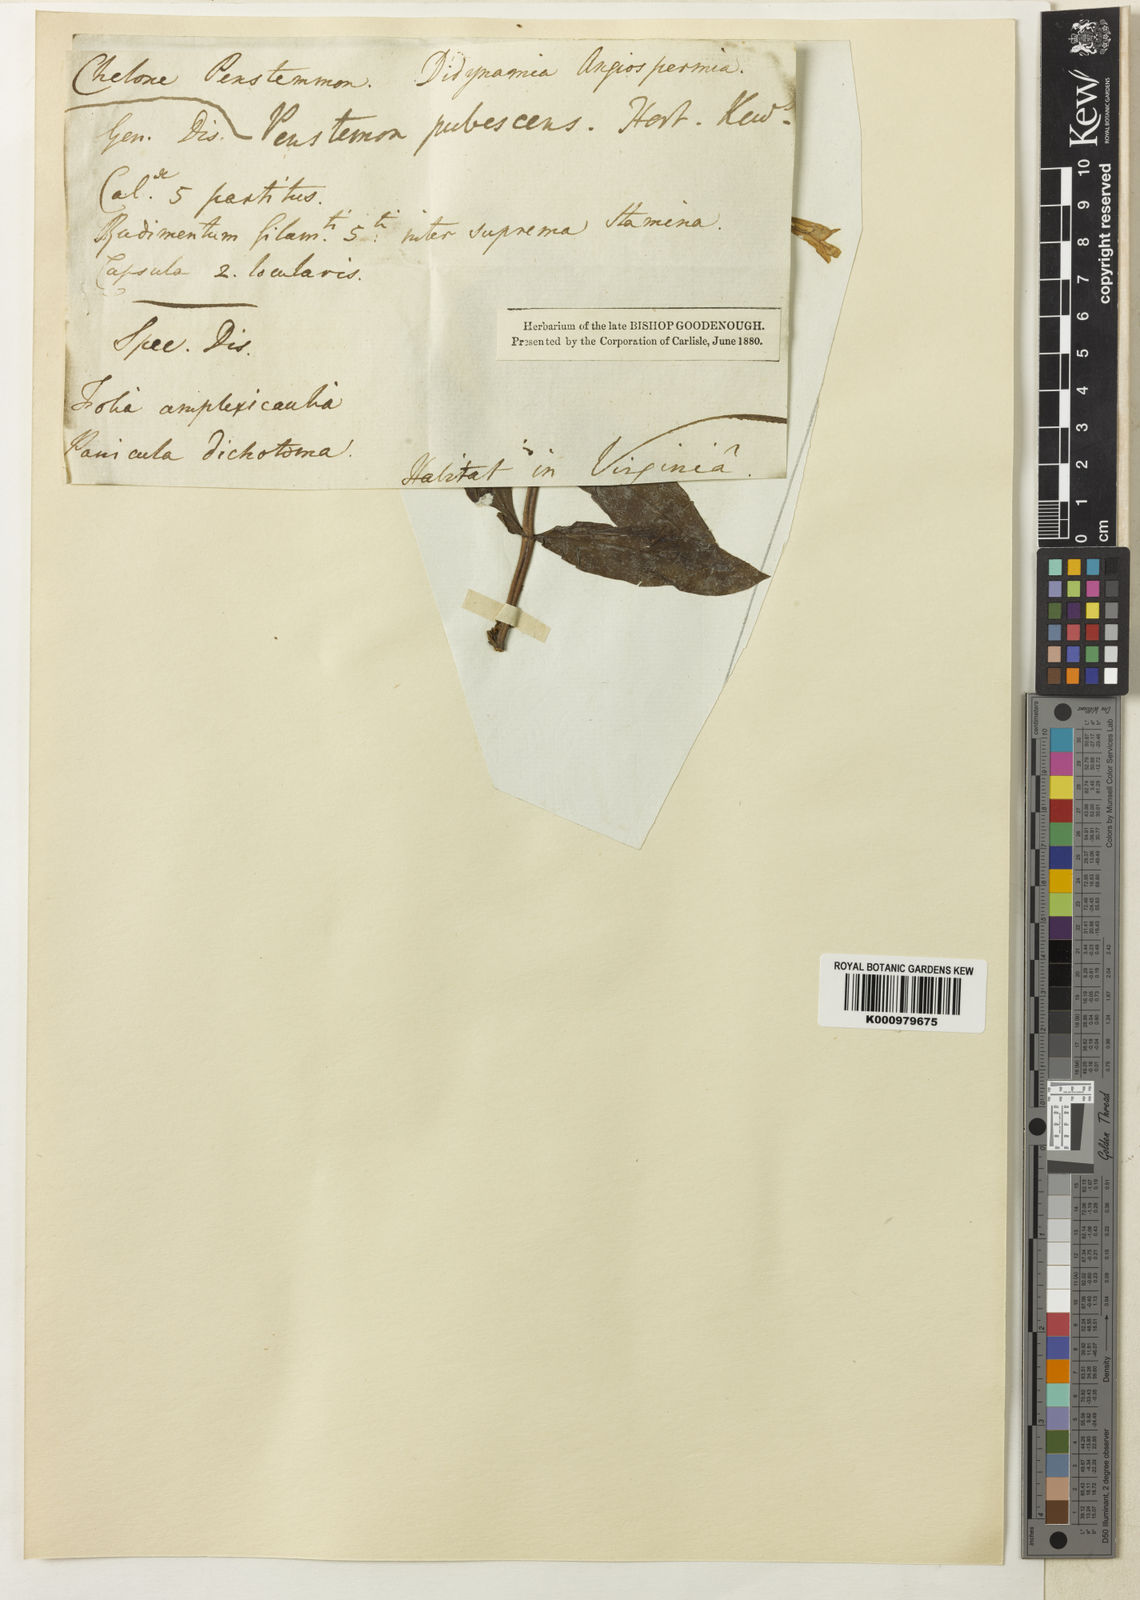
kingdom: Plantae
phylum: Tracheophyta
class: Magnoliopsida
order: Lamiales
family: Plantaginaceae
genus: Penstemon
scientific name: Penstemon hirsutus
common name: Hairy beardtongue
